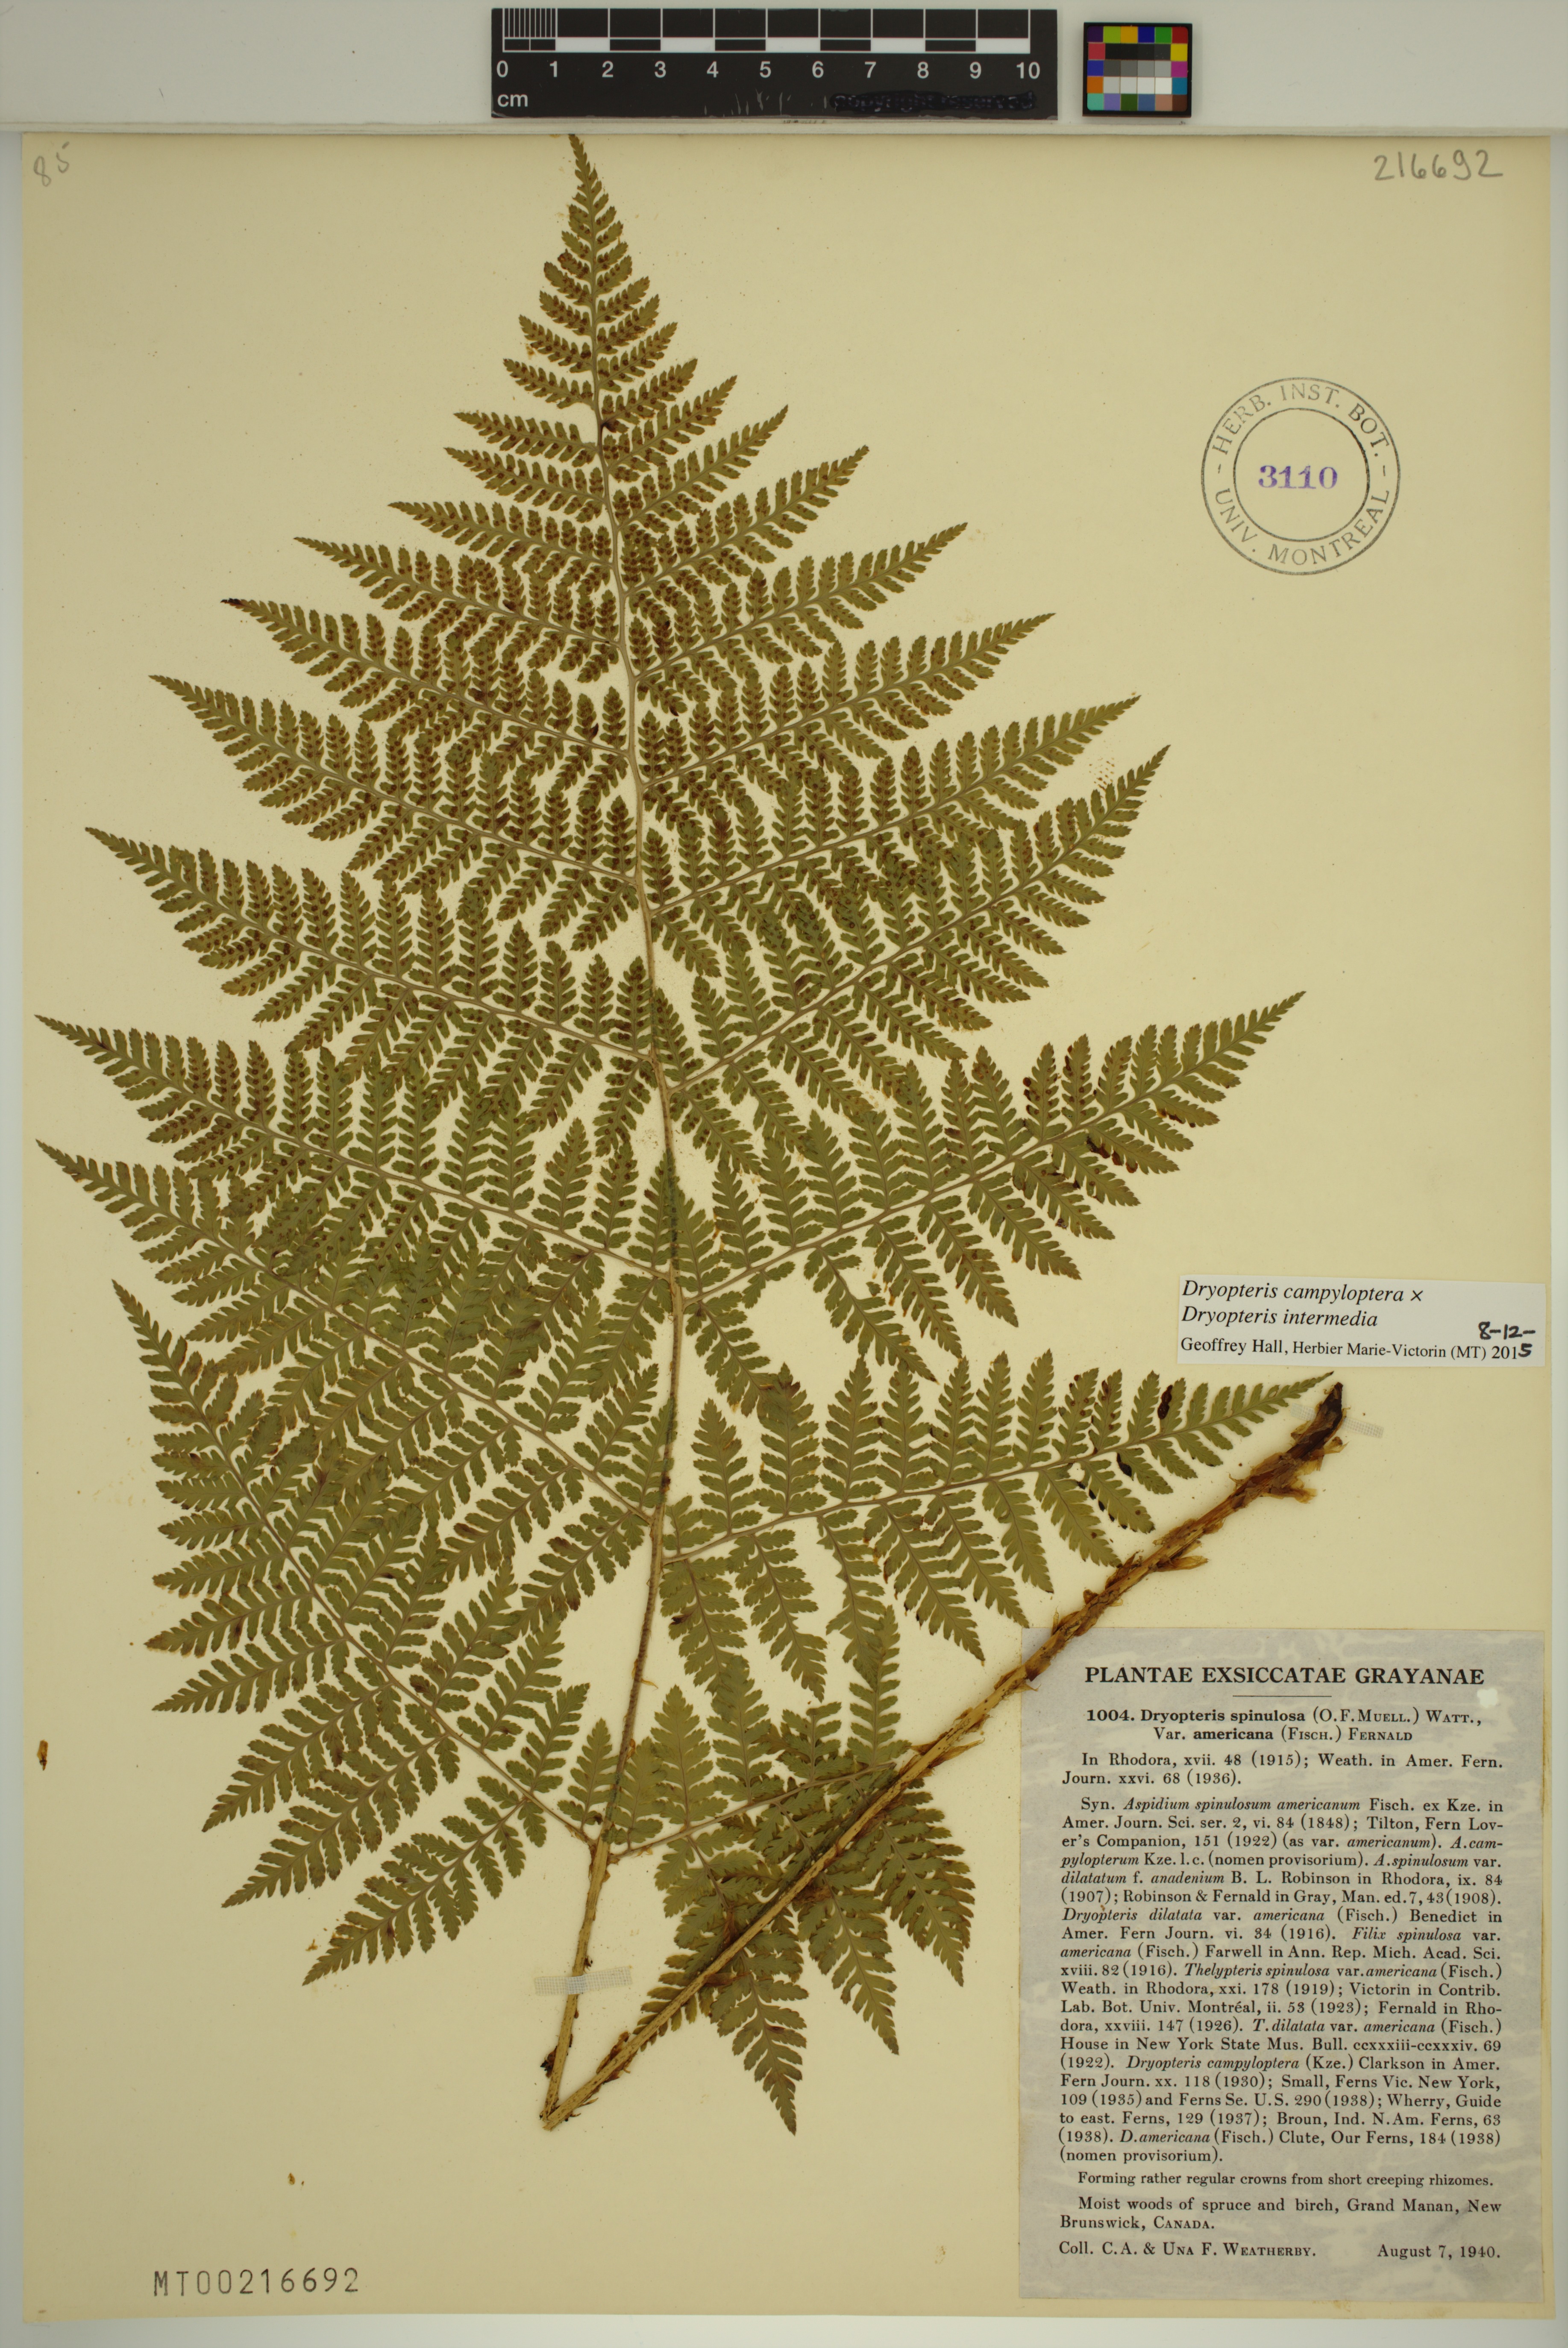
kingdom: Plantae
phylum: Tracheophyta
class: Polypodiopsida
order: Polypodiales
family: Dryopteridaceae
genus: Dryopteris
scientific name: Dryopteris campyloptera
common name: Mountain wood fern
